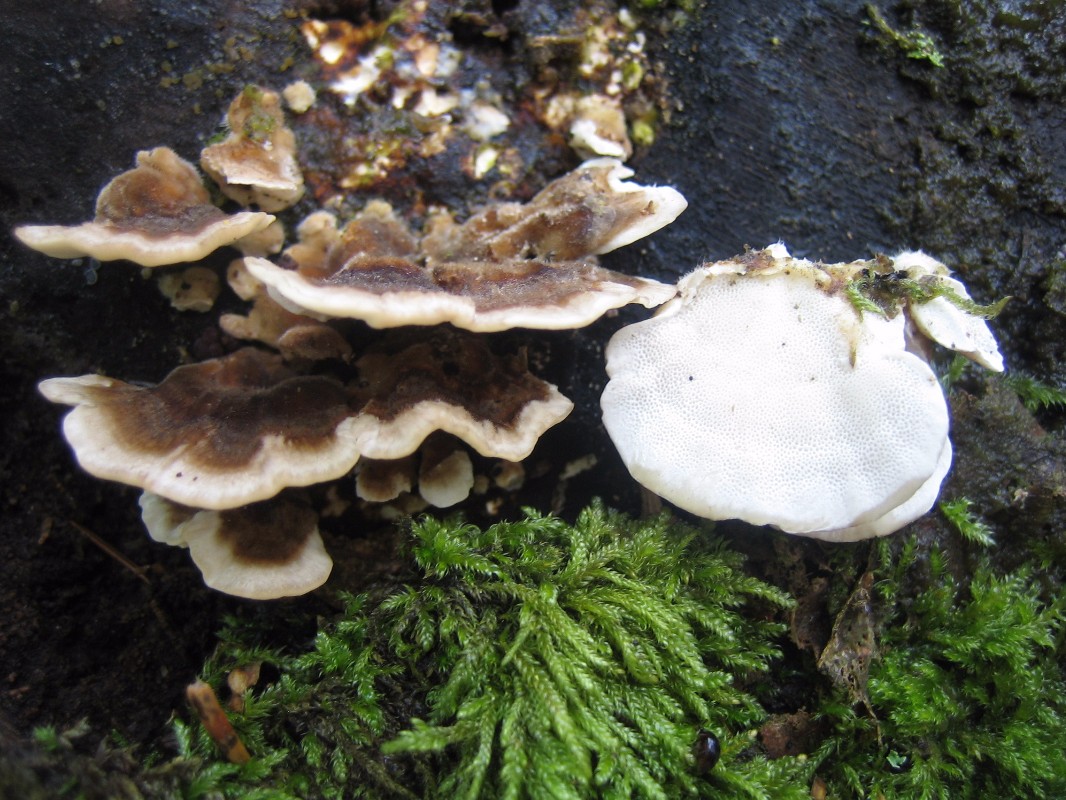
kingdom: Fungi
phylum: Basidiomycota
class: Agaricomycetes
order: Polyporales
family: Polyporaceae
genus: Trametes
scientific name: Trametes versicolor
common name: broget læderporesvamp
